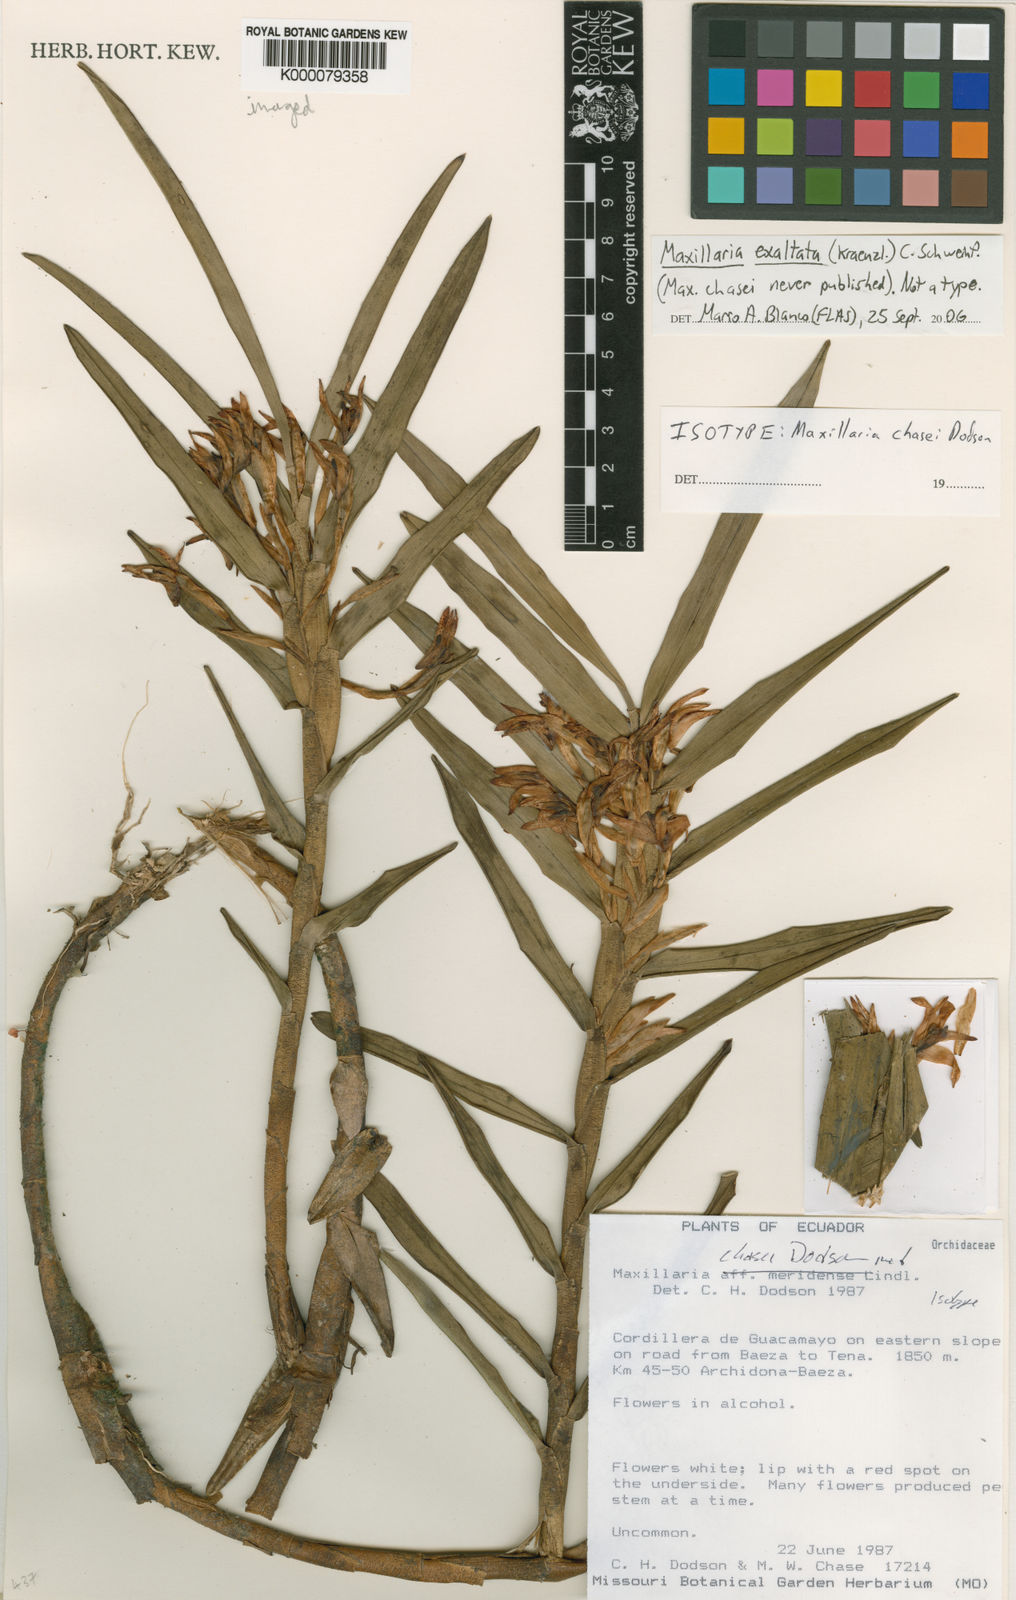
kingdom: Plantae
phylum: Tracheophyta
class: Liliopsida
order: Asparagales
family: Orchidaceae
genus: Maxillaria
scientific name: Maxillaria exaltata
